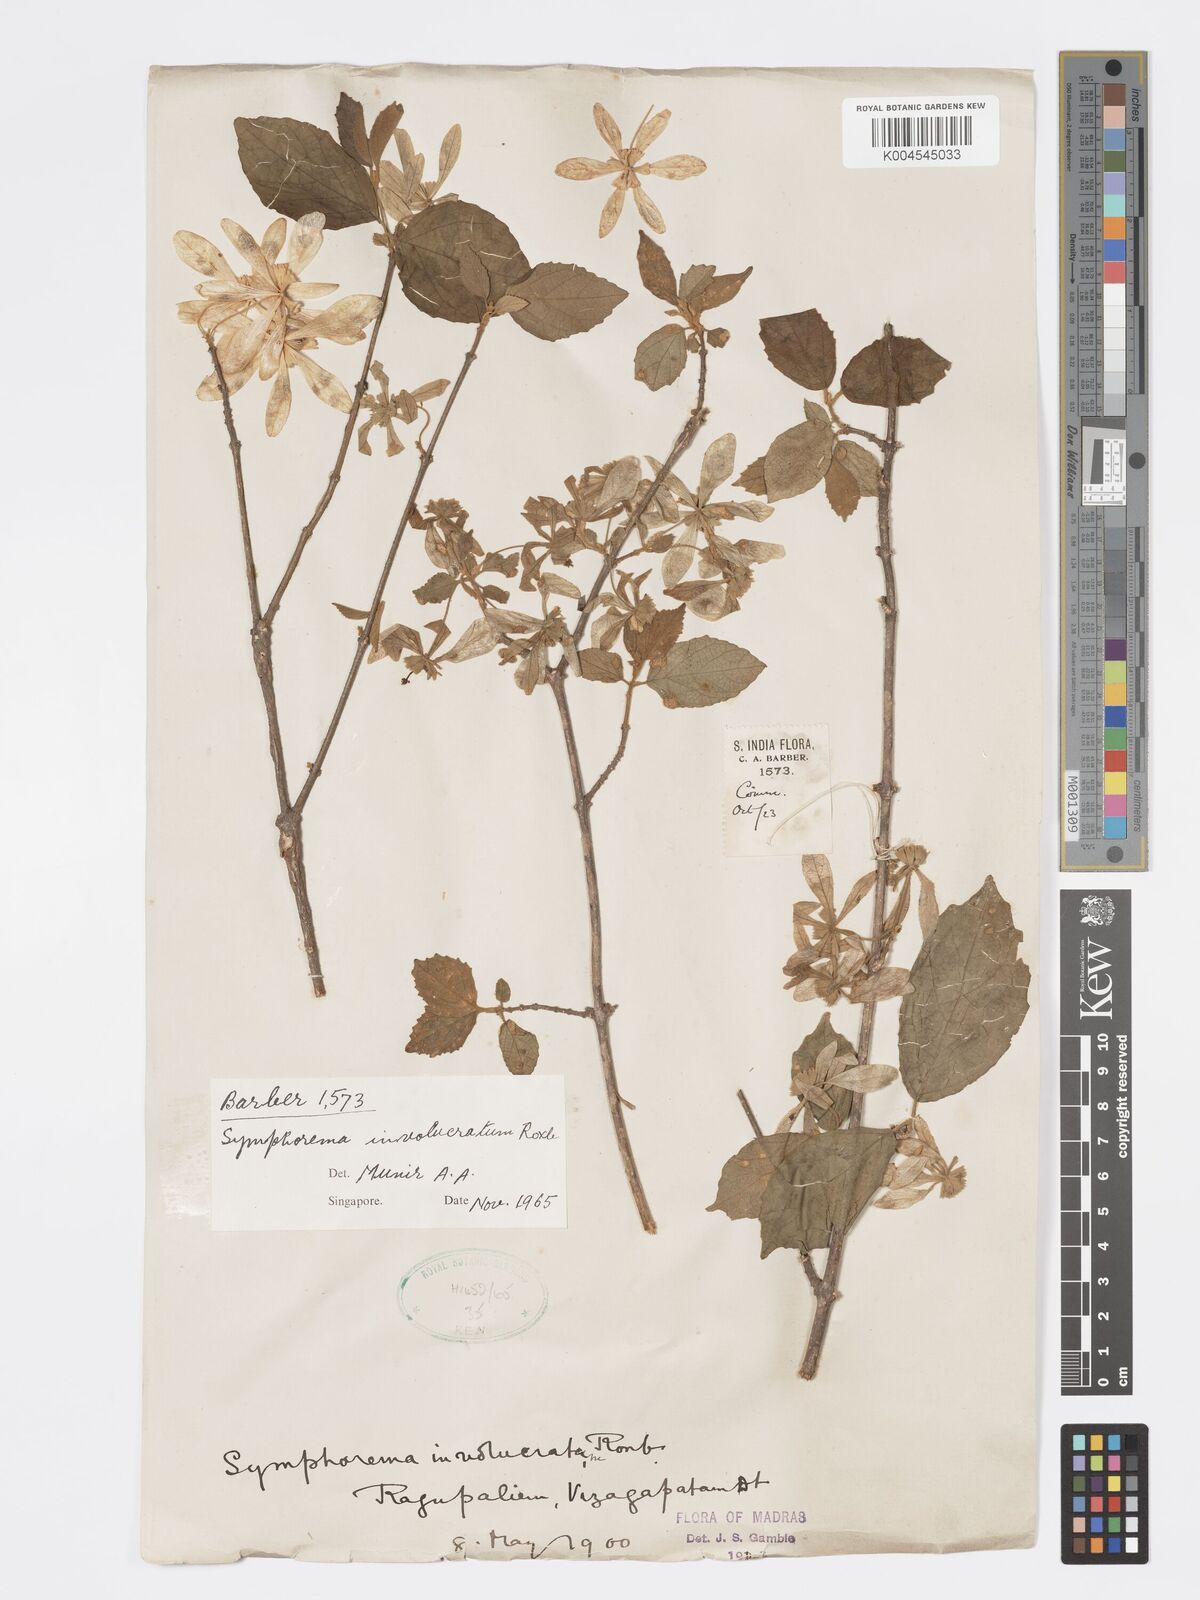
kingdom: Plantae
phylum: Tracheophyta
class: Magnoliopsida
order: Lamiales
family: Lamiaceae
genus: Symphorema
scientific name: Symphorema involucratum
